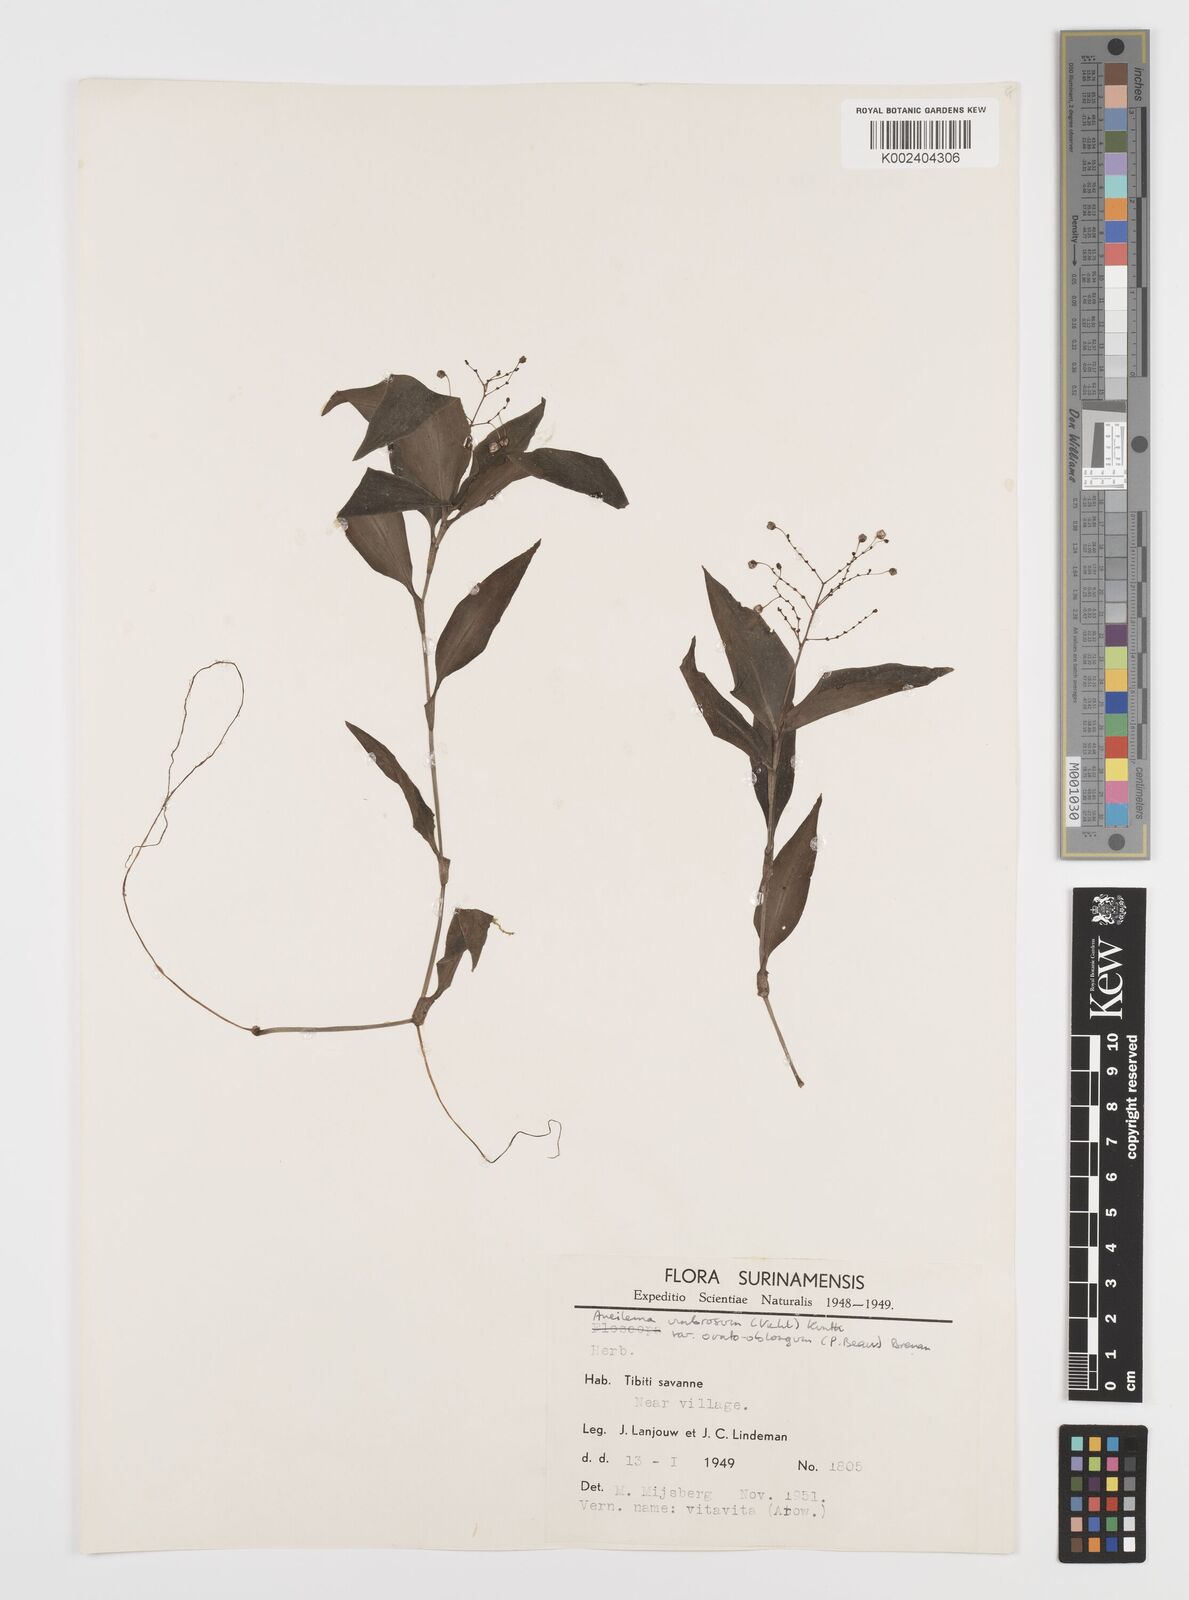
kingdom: Plantae
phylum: Tracheophyta
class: Liliopsida
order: Commelinales
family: Commelinaceae
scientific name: Commelinaceae
